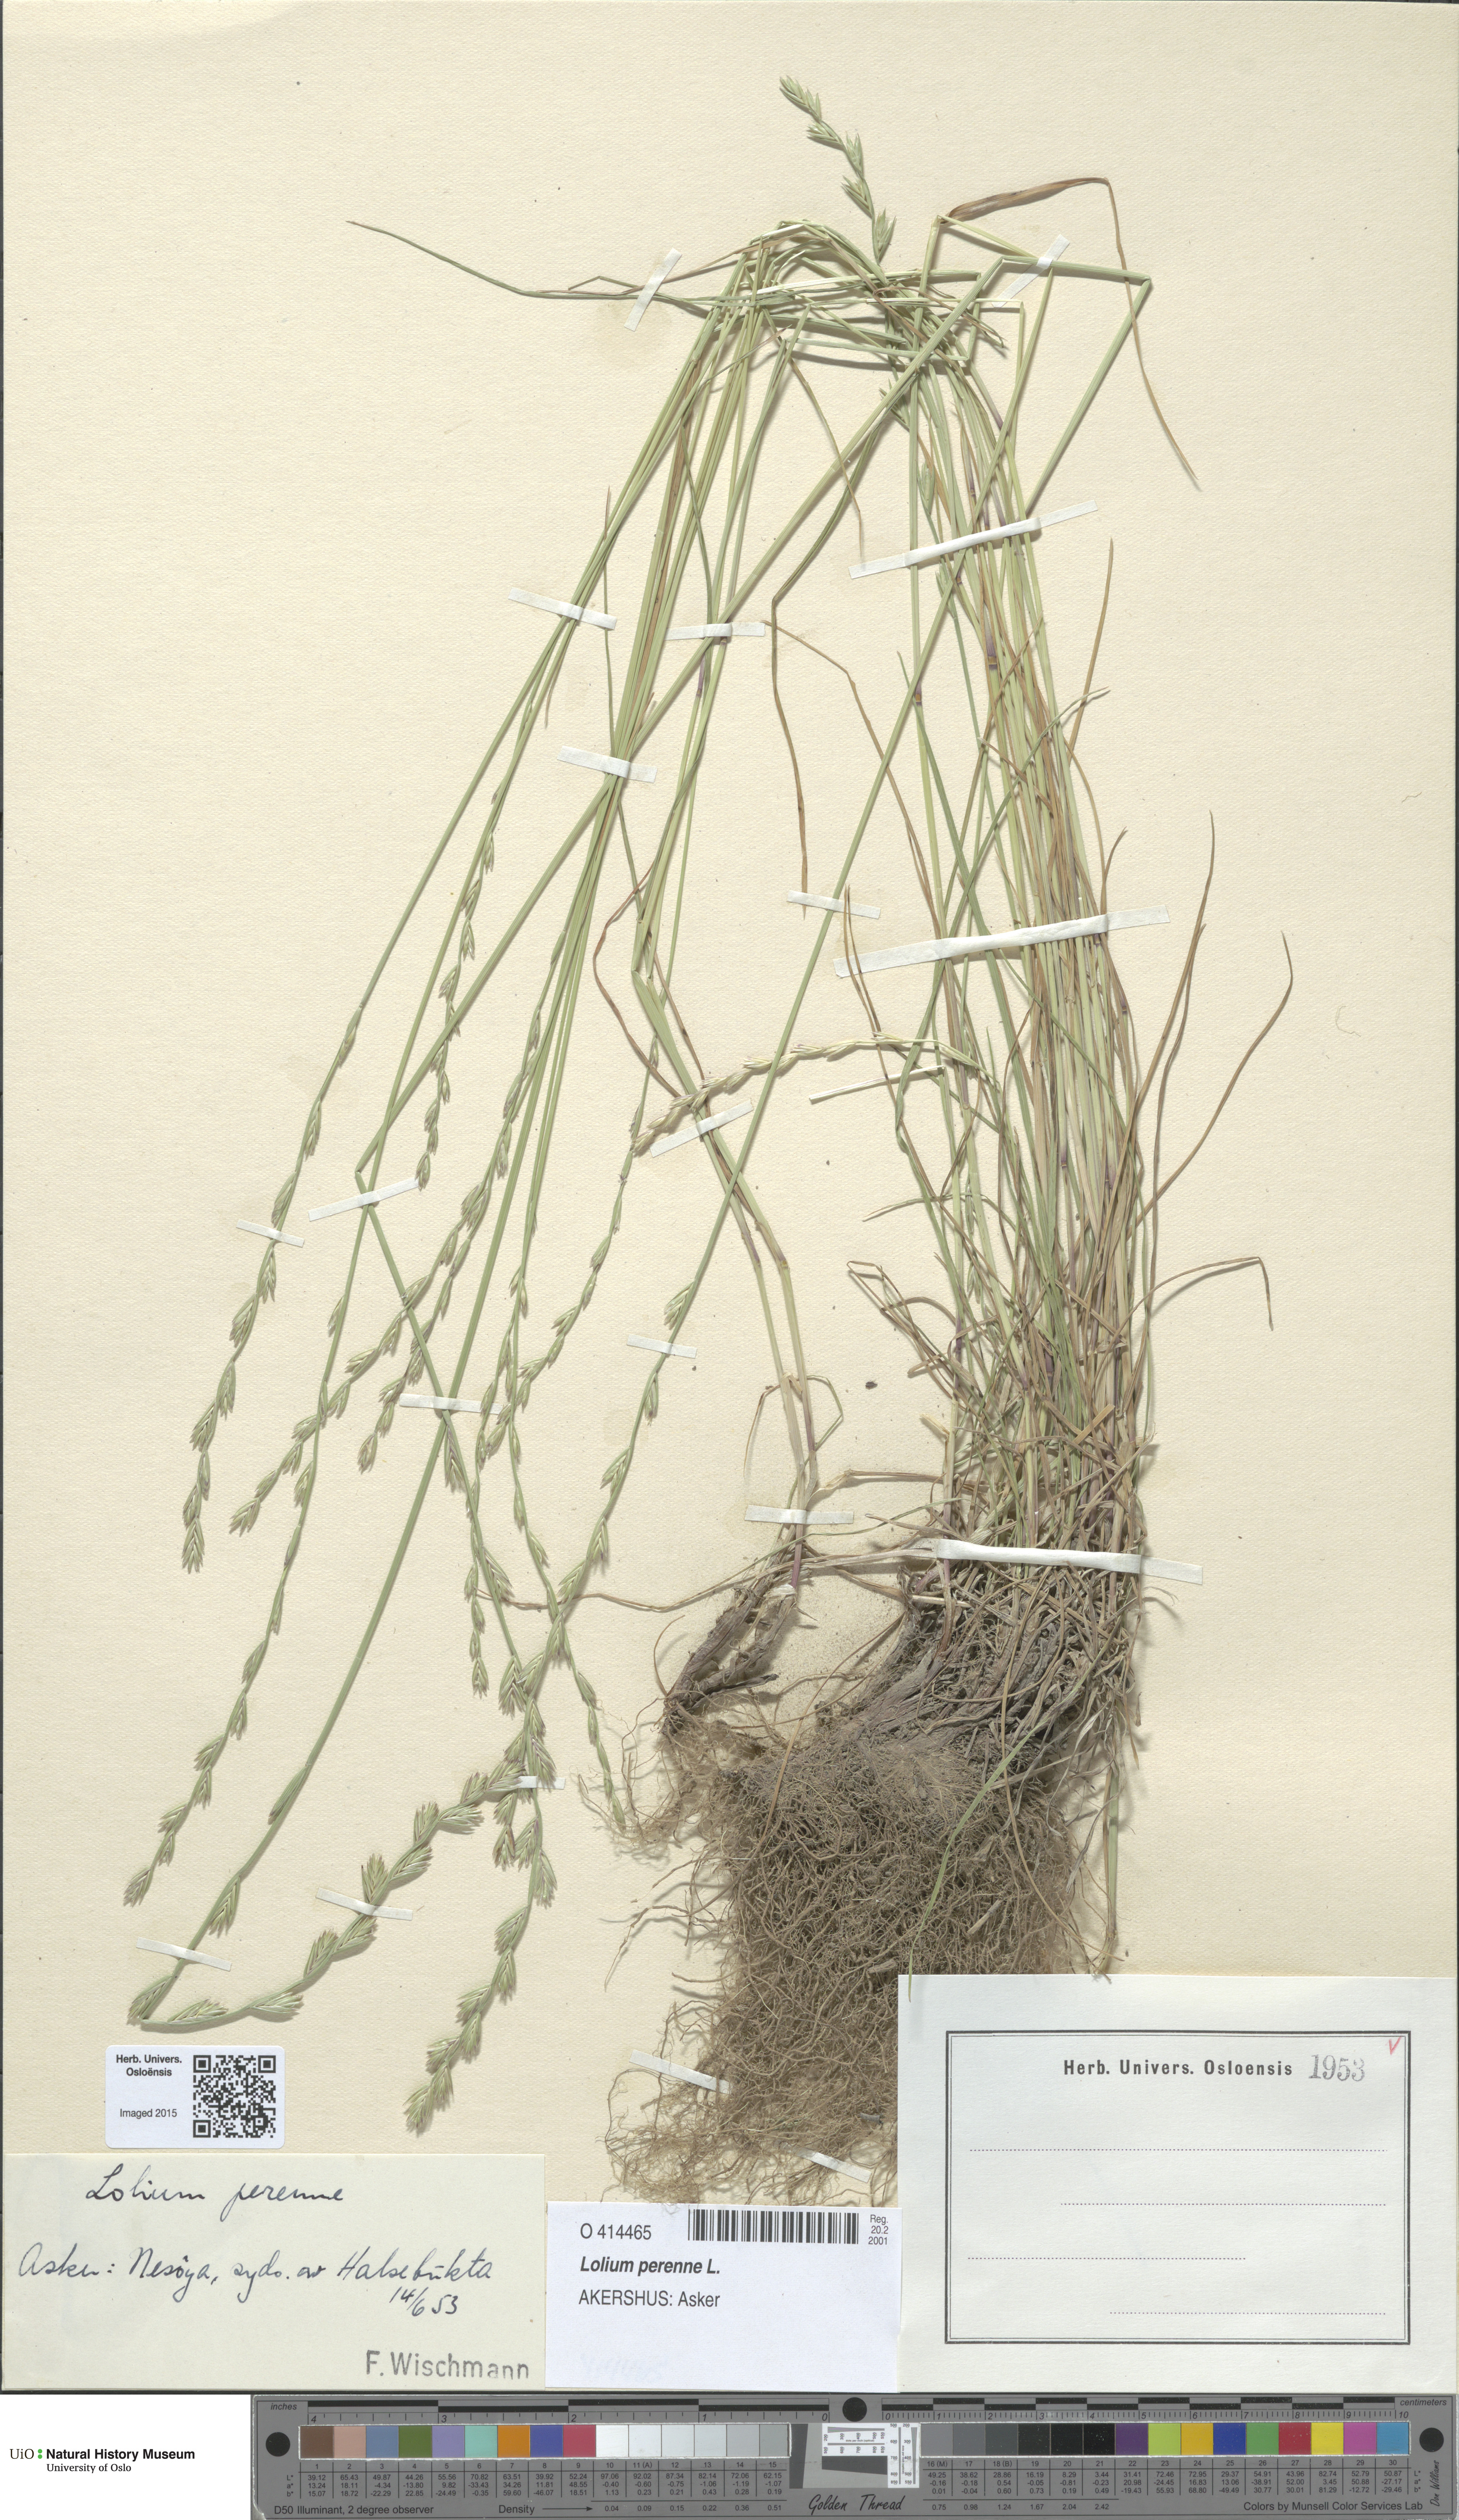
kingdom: Plantae
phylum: Tracheophyta
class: Liliopsida
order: Poales
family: Poaceae
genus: Lolium
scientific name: Lolium perenne
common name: Perennial ryegrass
